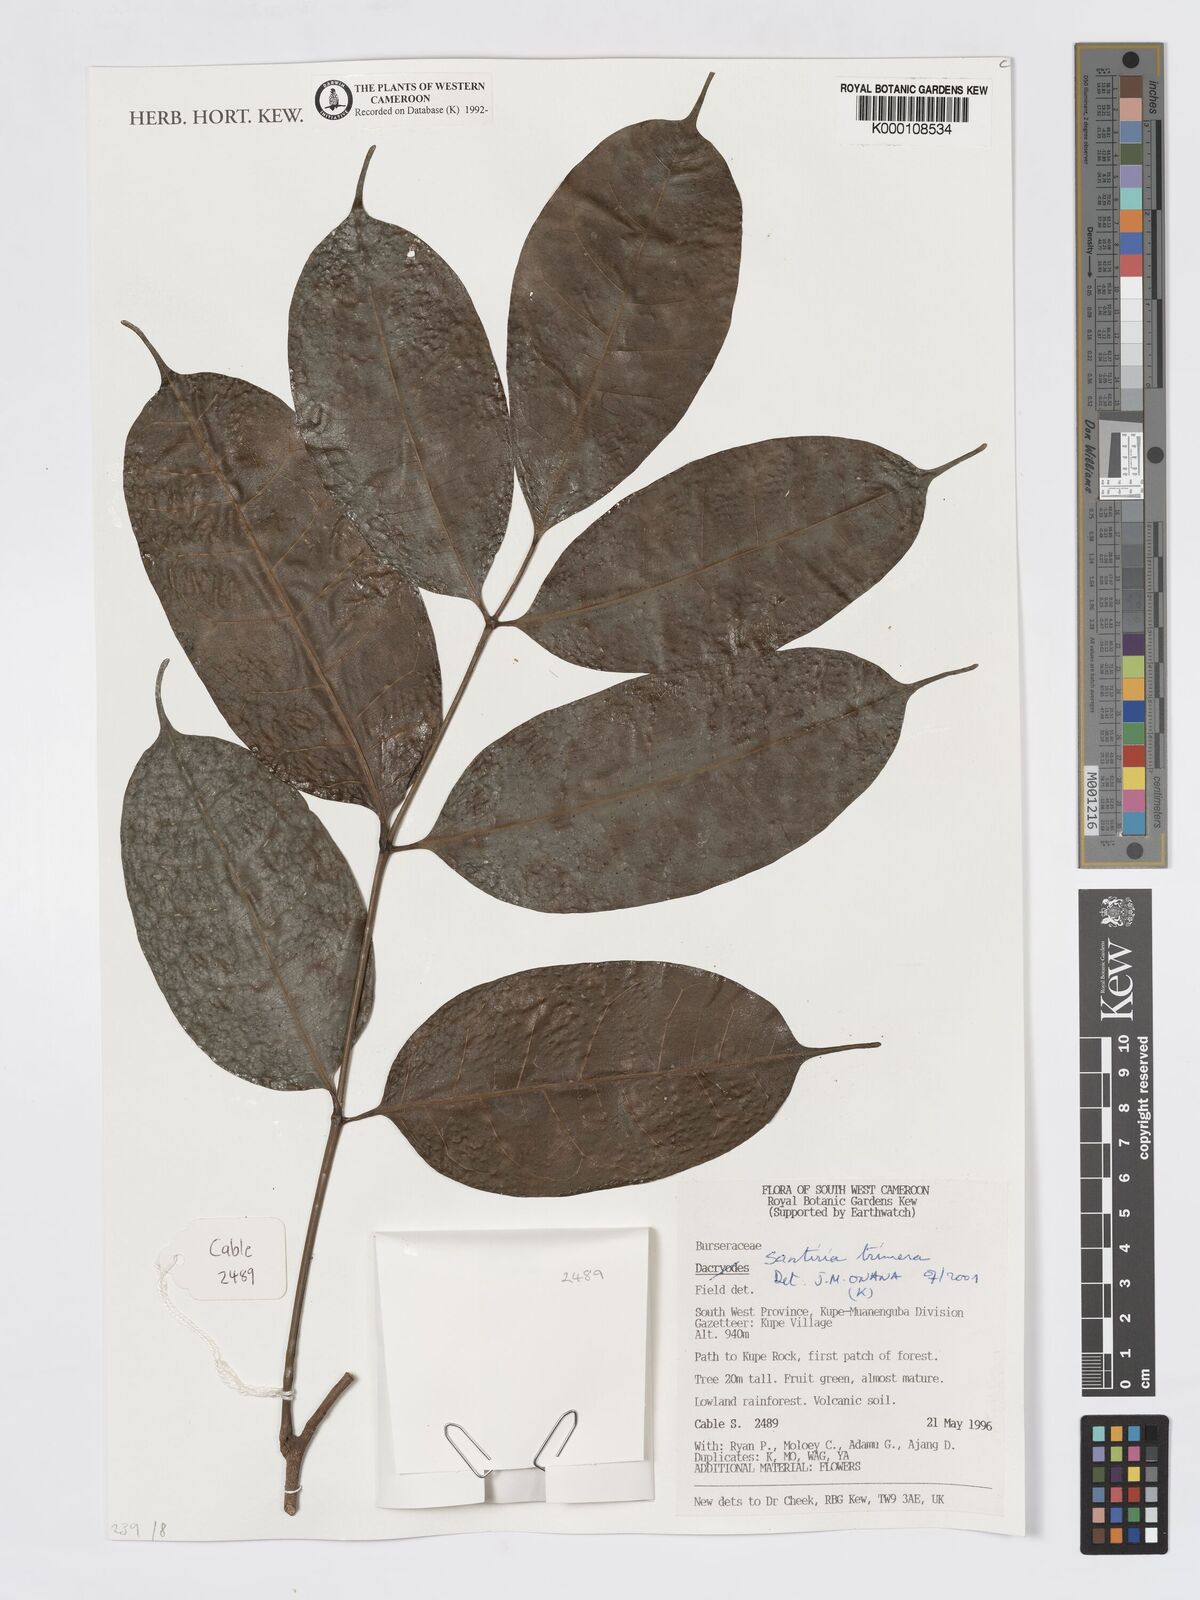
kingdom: Plantae
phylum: Tracheophyta
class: Magnoliopsida
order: Sapindales
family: Burseraceae
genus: Santiria
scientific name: Santiria
